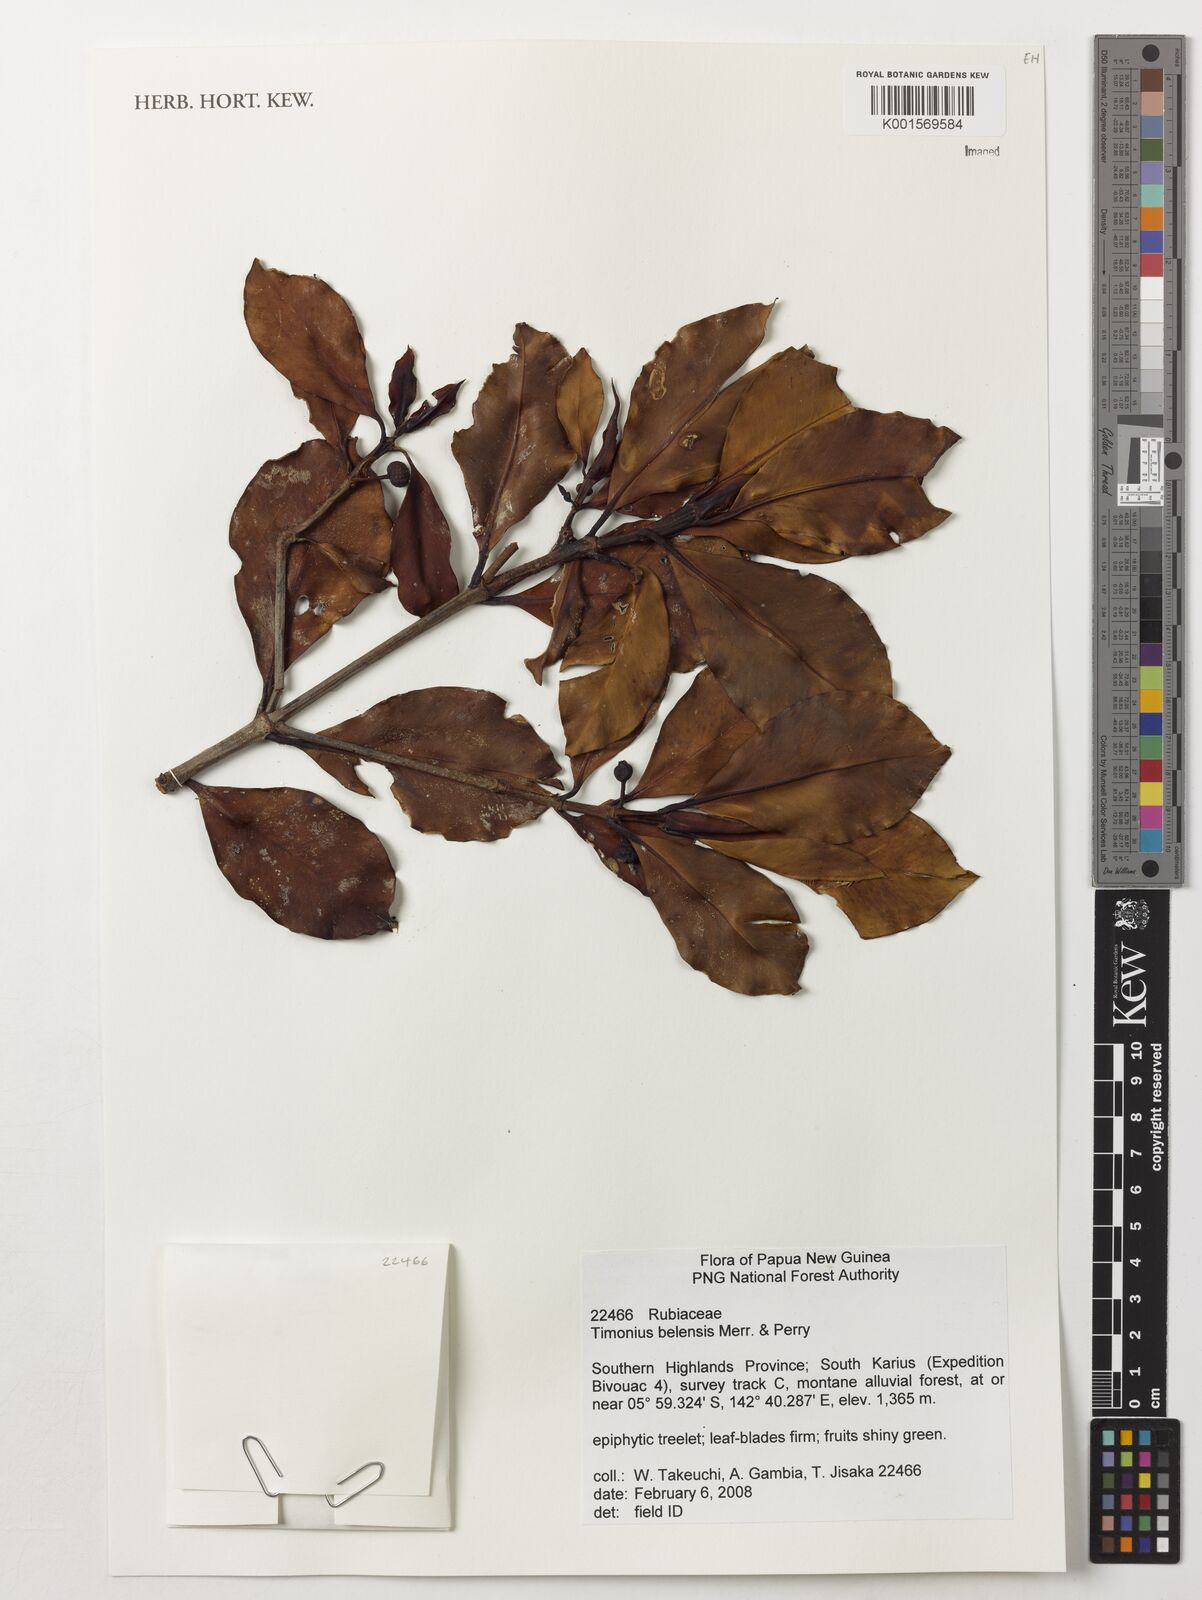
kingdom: Plantae
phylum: Tracheophyta
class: Magnoliopsida
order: Gentianales
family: Rubiaceae
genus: Timonius
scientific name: Timonius belensis
